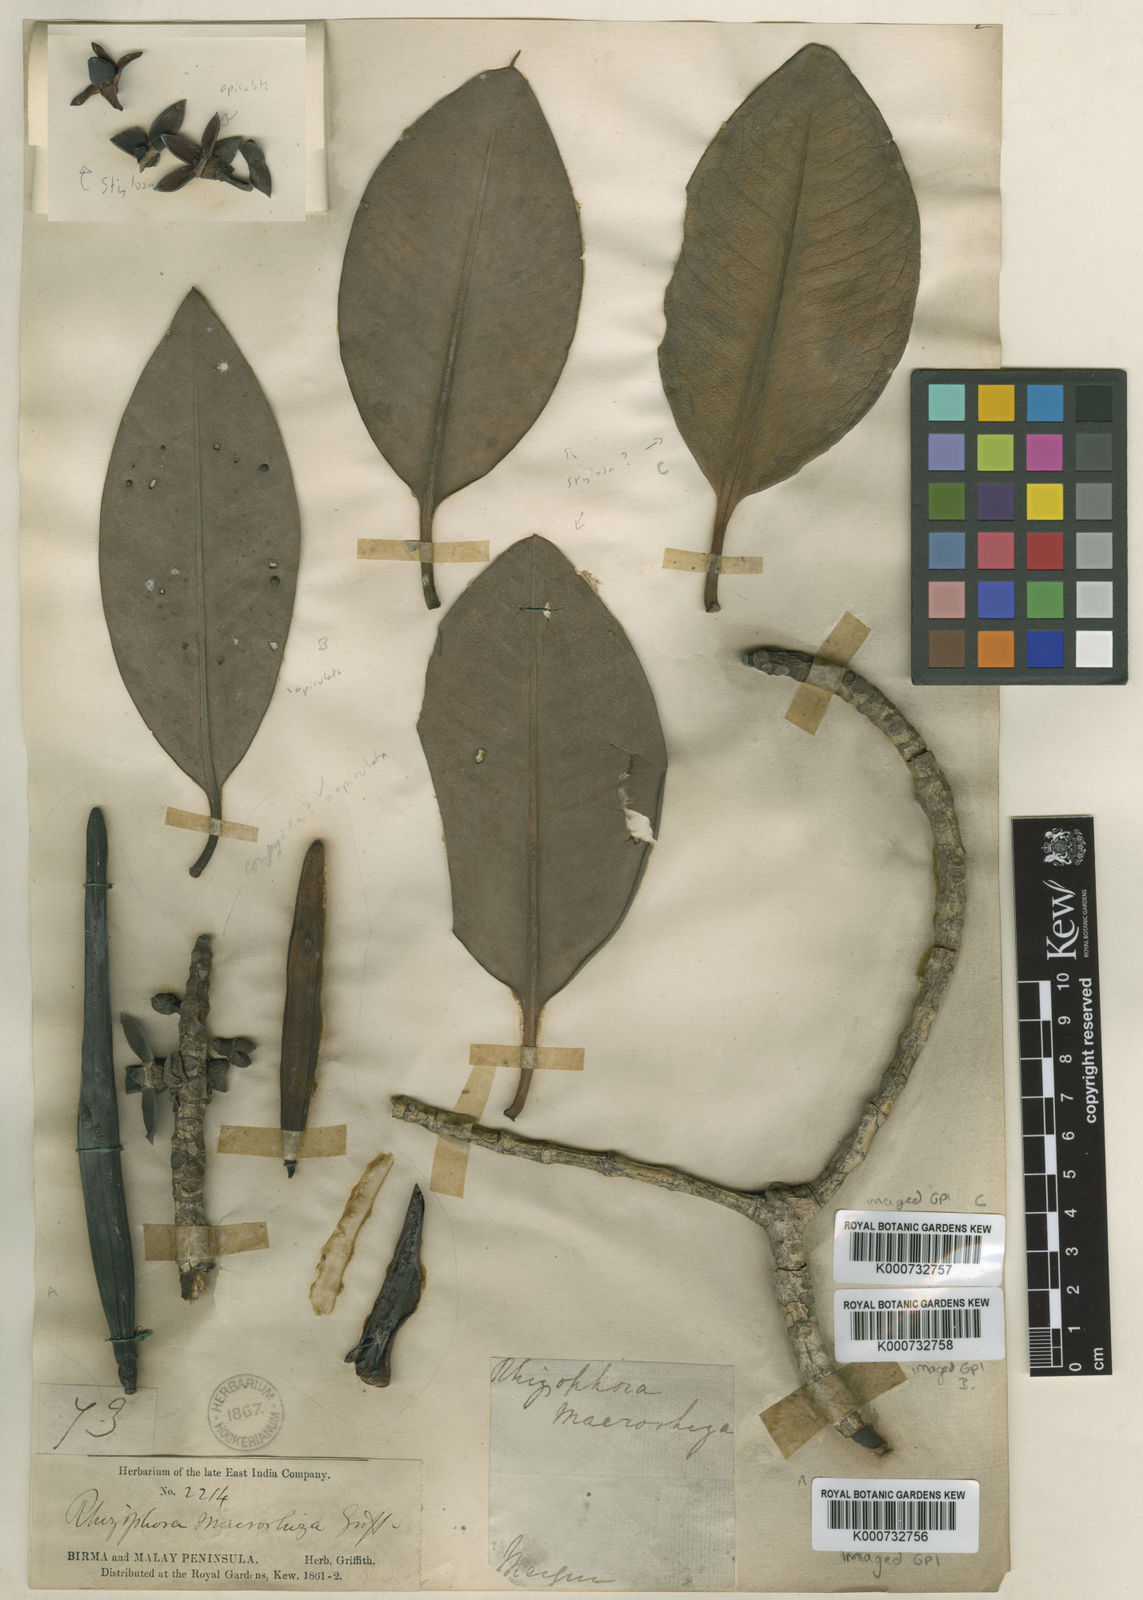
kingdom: Plantae
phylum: Tracheophyta
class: Magnoliopsida
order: Malpighiales
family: Rhizophoraceae
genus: Rhizophora
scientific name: Rhizophora
